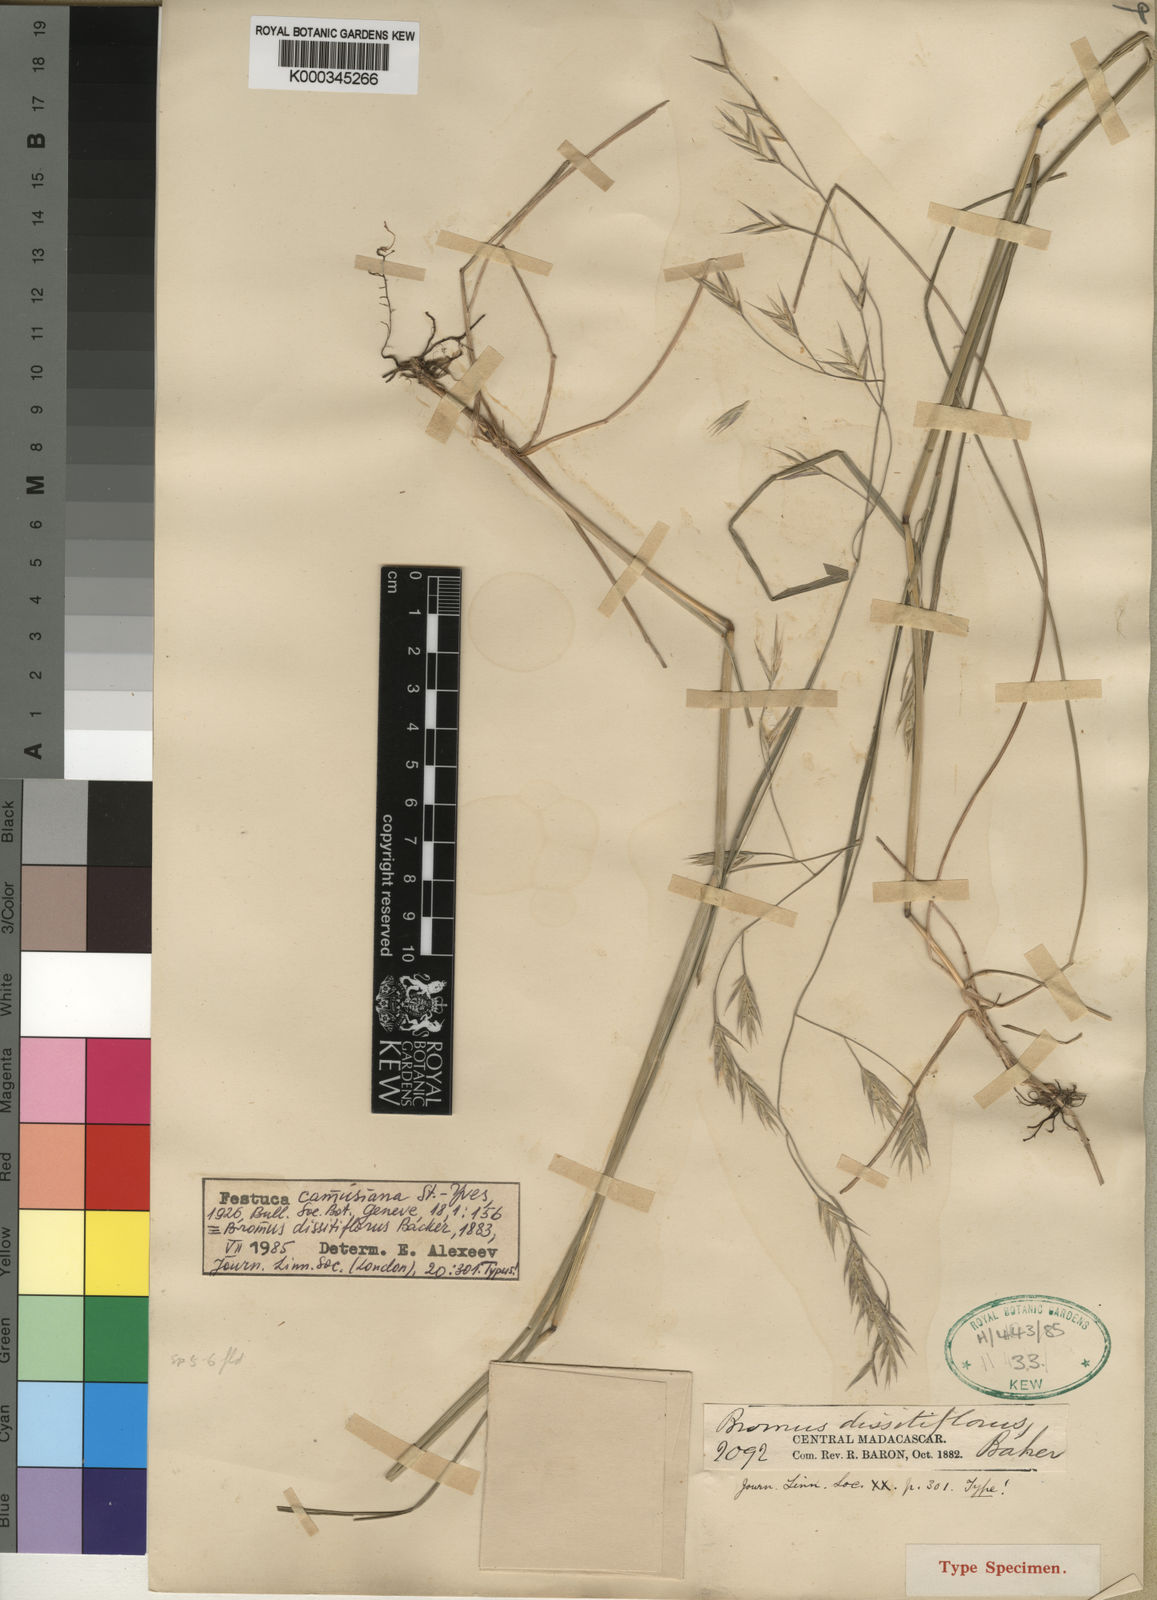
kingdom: Plantae
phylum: Tracheophyta
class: Liliopsida
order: Poales
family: Poaceae
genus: Festuca
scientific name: Festuca camusiana
